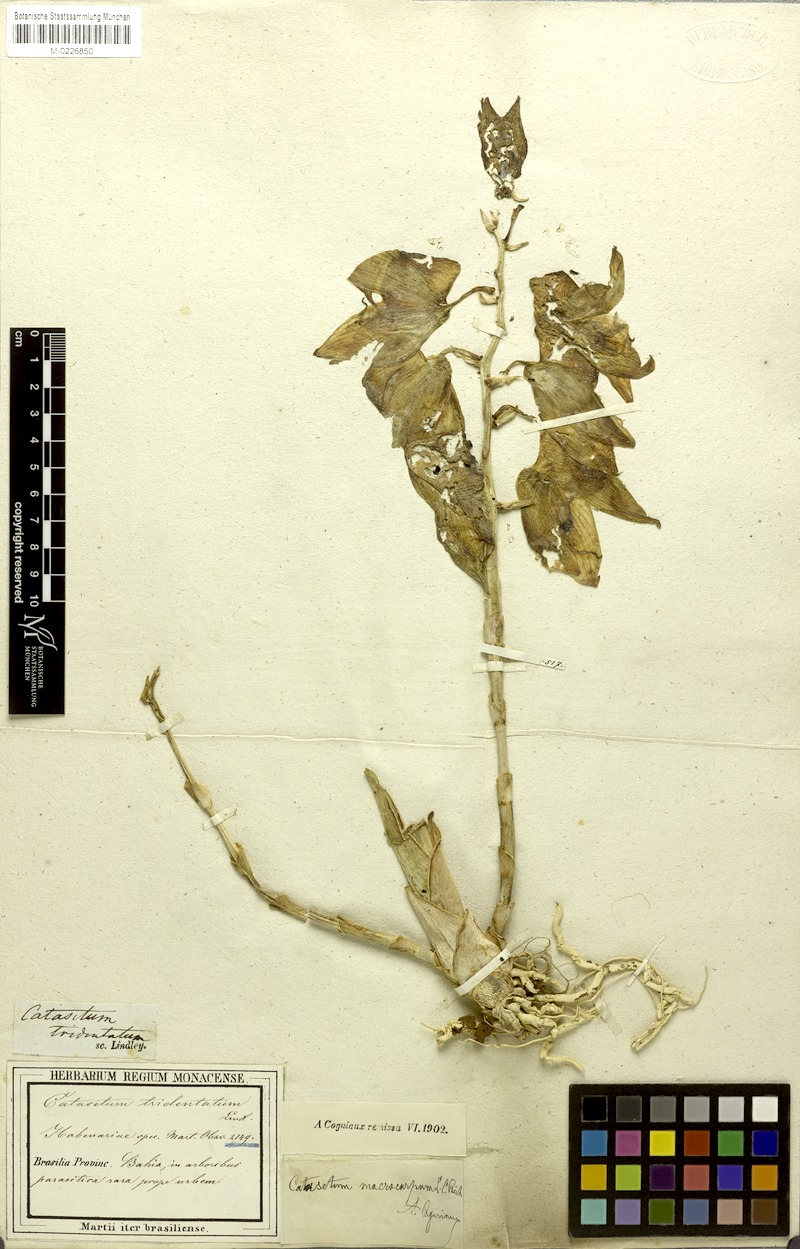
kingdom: Plantae
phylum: Tracheophyta
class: Liliopsida
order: Asparagales
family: Orchidaceae
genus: Catasetum
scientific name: Catasetum macrocarpum
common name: Jumping orchid
